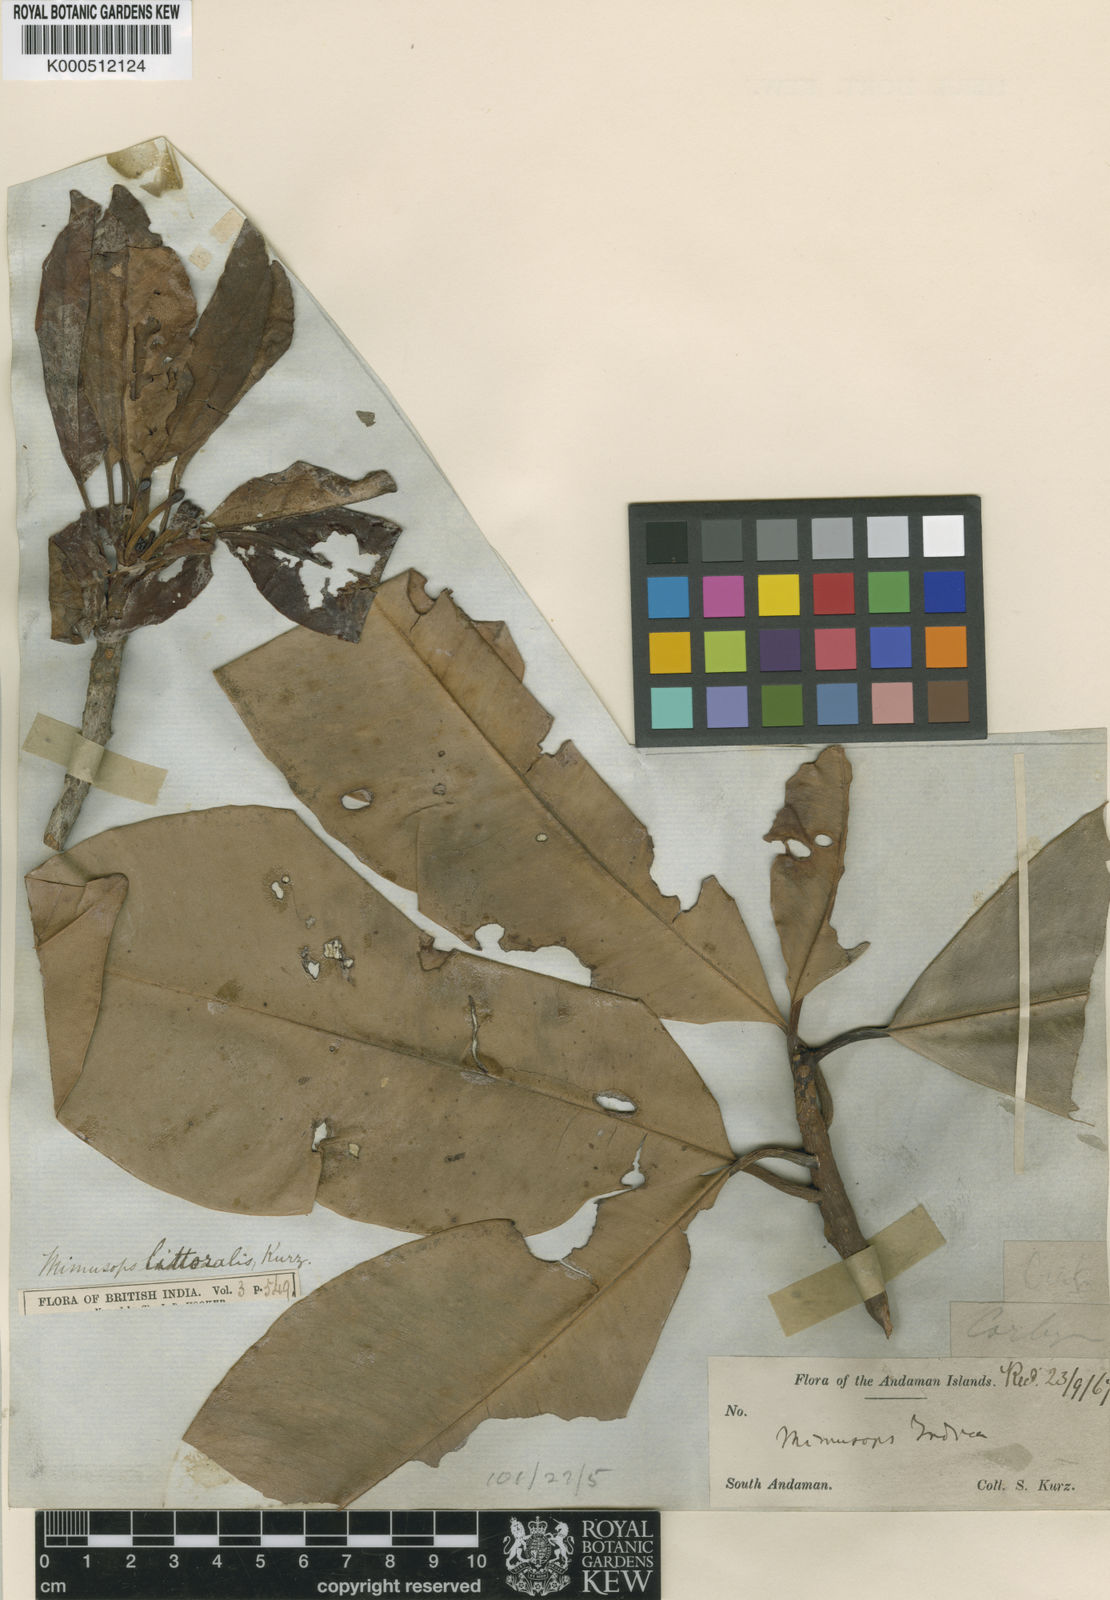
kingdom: Plantae
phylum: Tracheophyta
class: Magnoliopsida
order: Ericales
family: Sapotaceae
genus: Manilkara
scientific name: Manilkara littoralis
